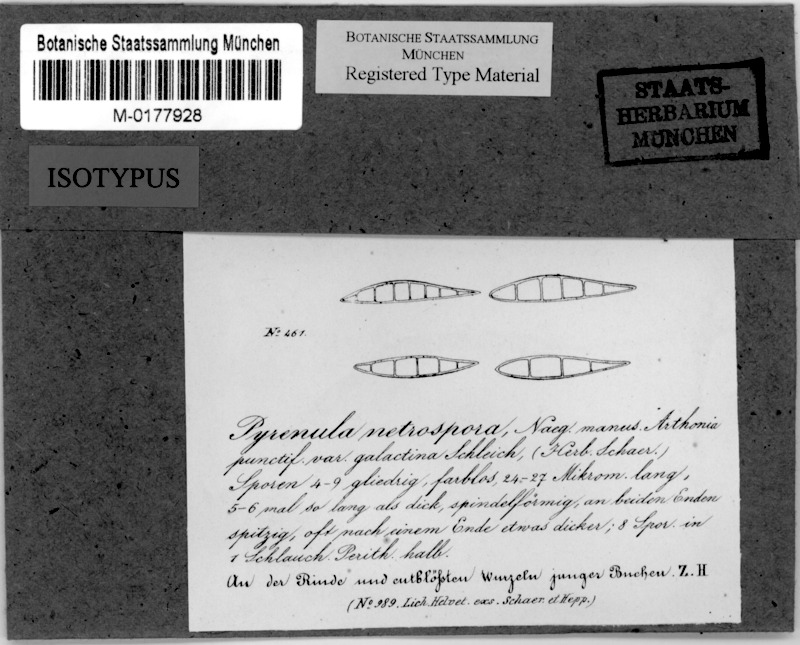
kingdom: Fungi
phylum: Ascomycota
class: Dothideomycetes
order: Strigulales
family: Strigulaceae
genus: Swinscowia
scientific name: Swinscowia glabra
